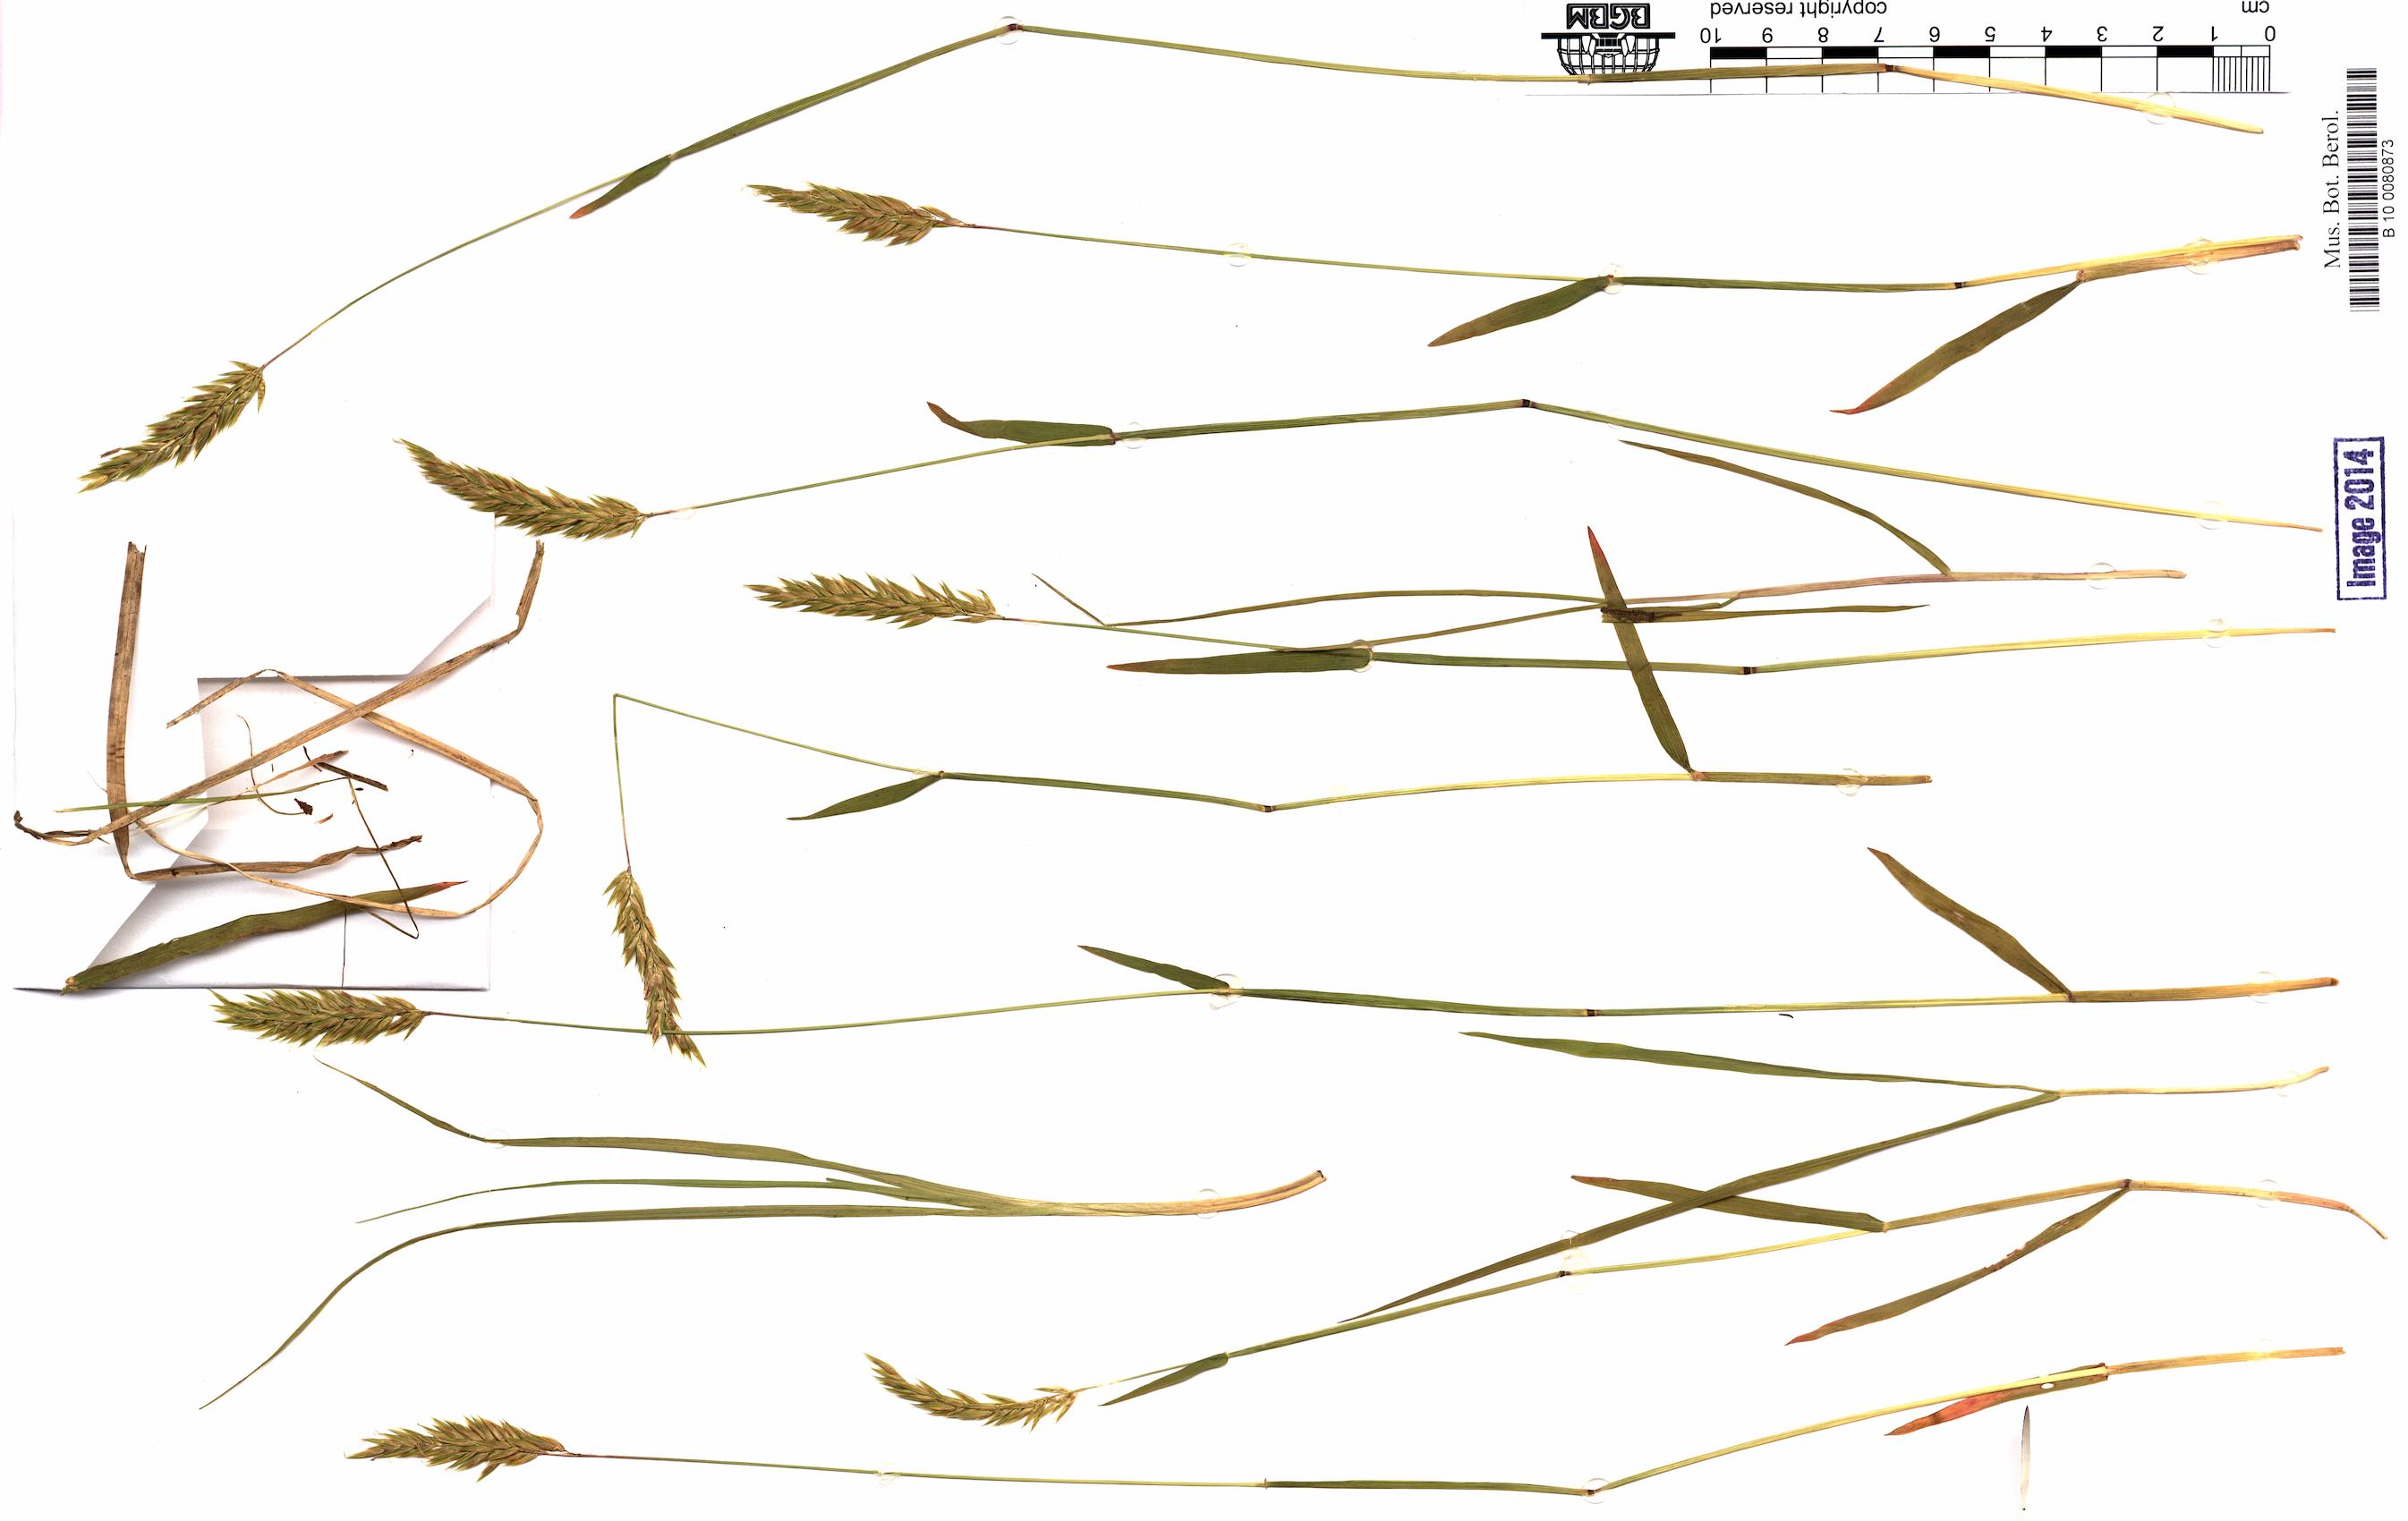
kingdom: Plantae
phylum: Tracheophyta
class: Liliopsida
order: Poales
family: Poaceae
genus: Brachypodium
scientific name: Brachypodium pinnatum
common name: Tor grass
